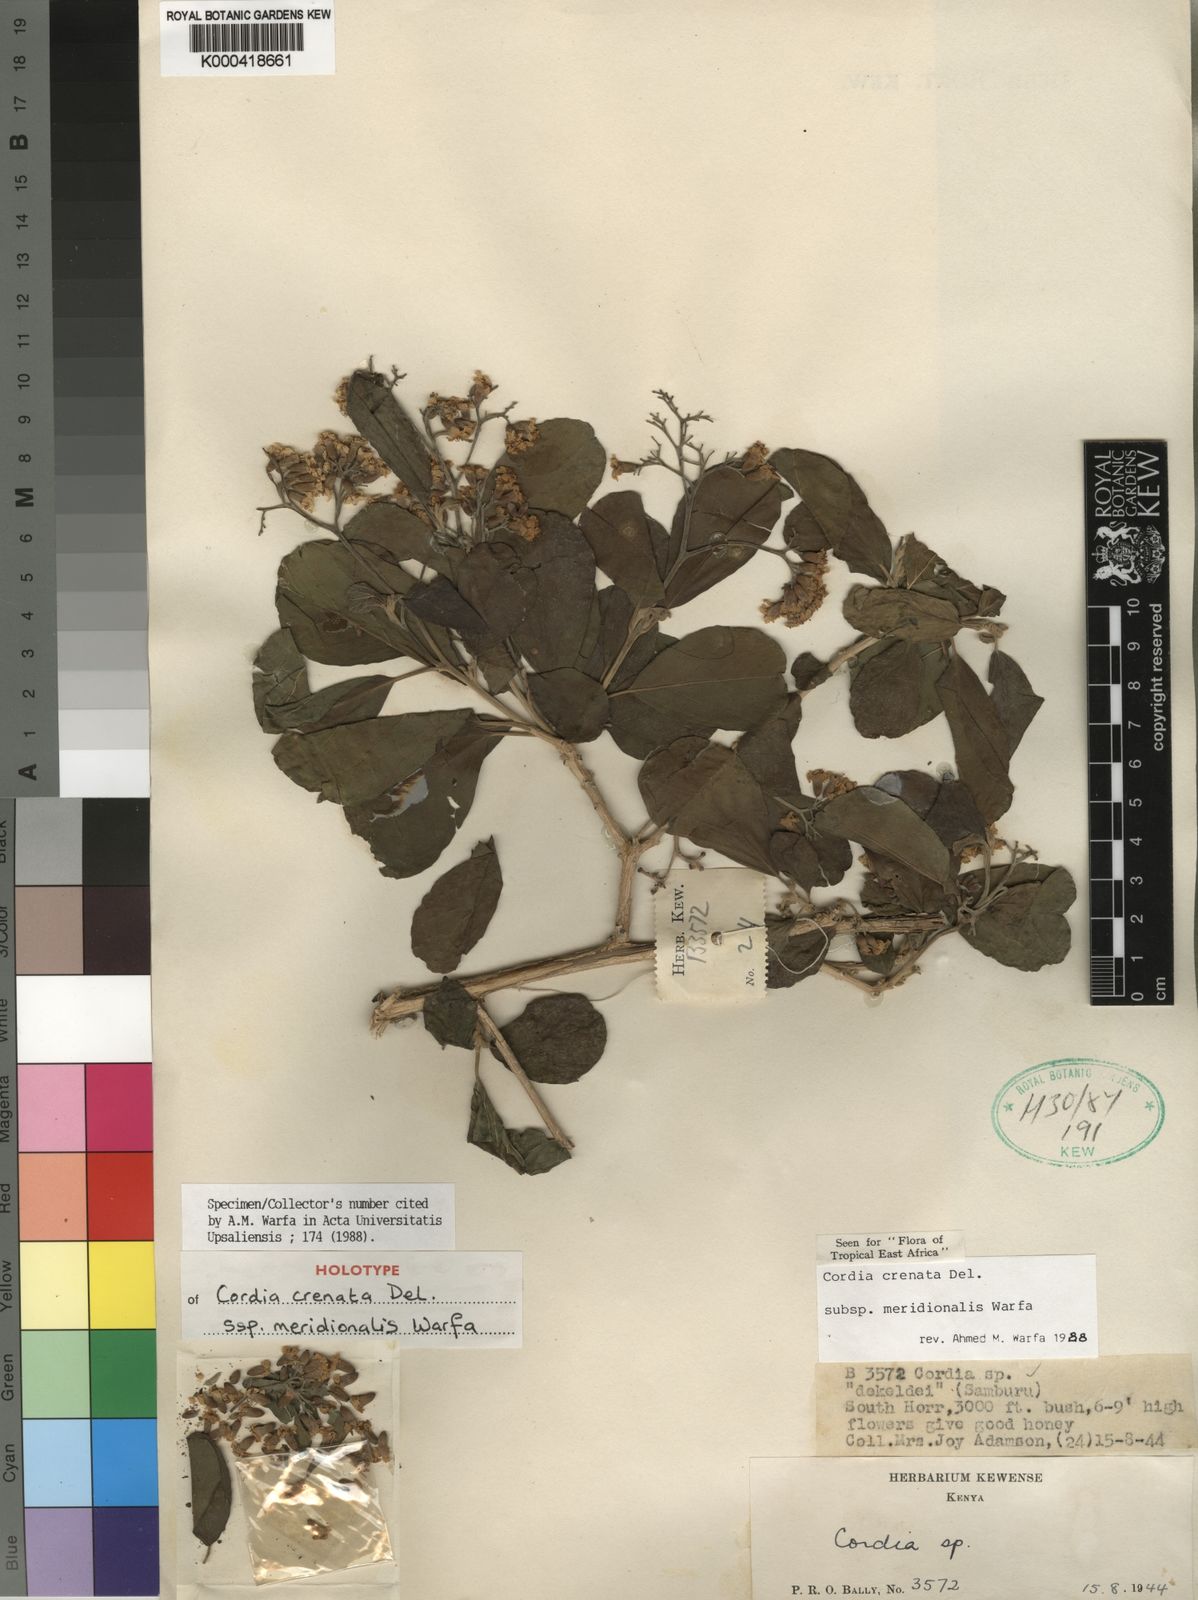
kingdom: Plantae
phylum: Tracheophyta
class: Magnoliopsida
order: Boraginales
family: Cordiaceae
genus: Cordia
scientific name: Cordia crenata
